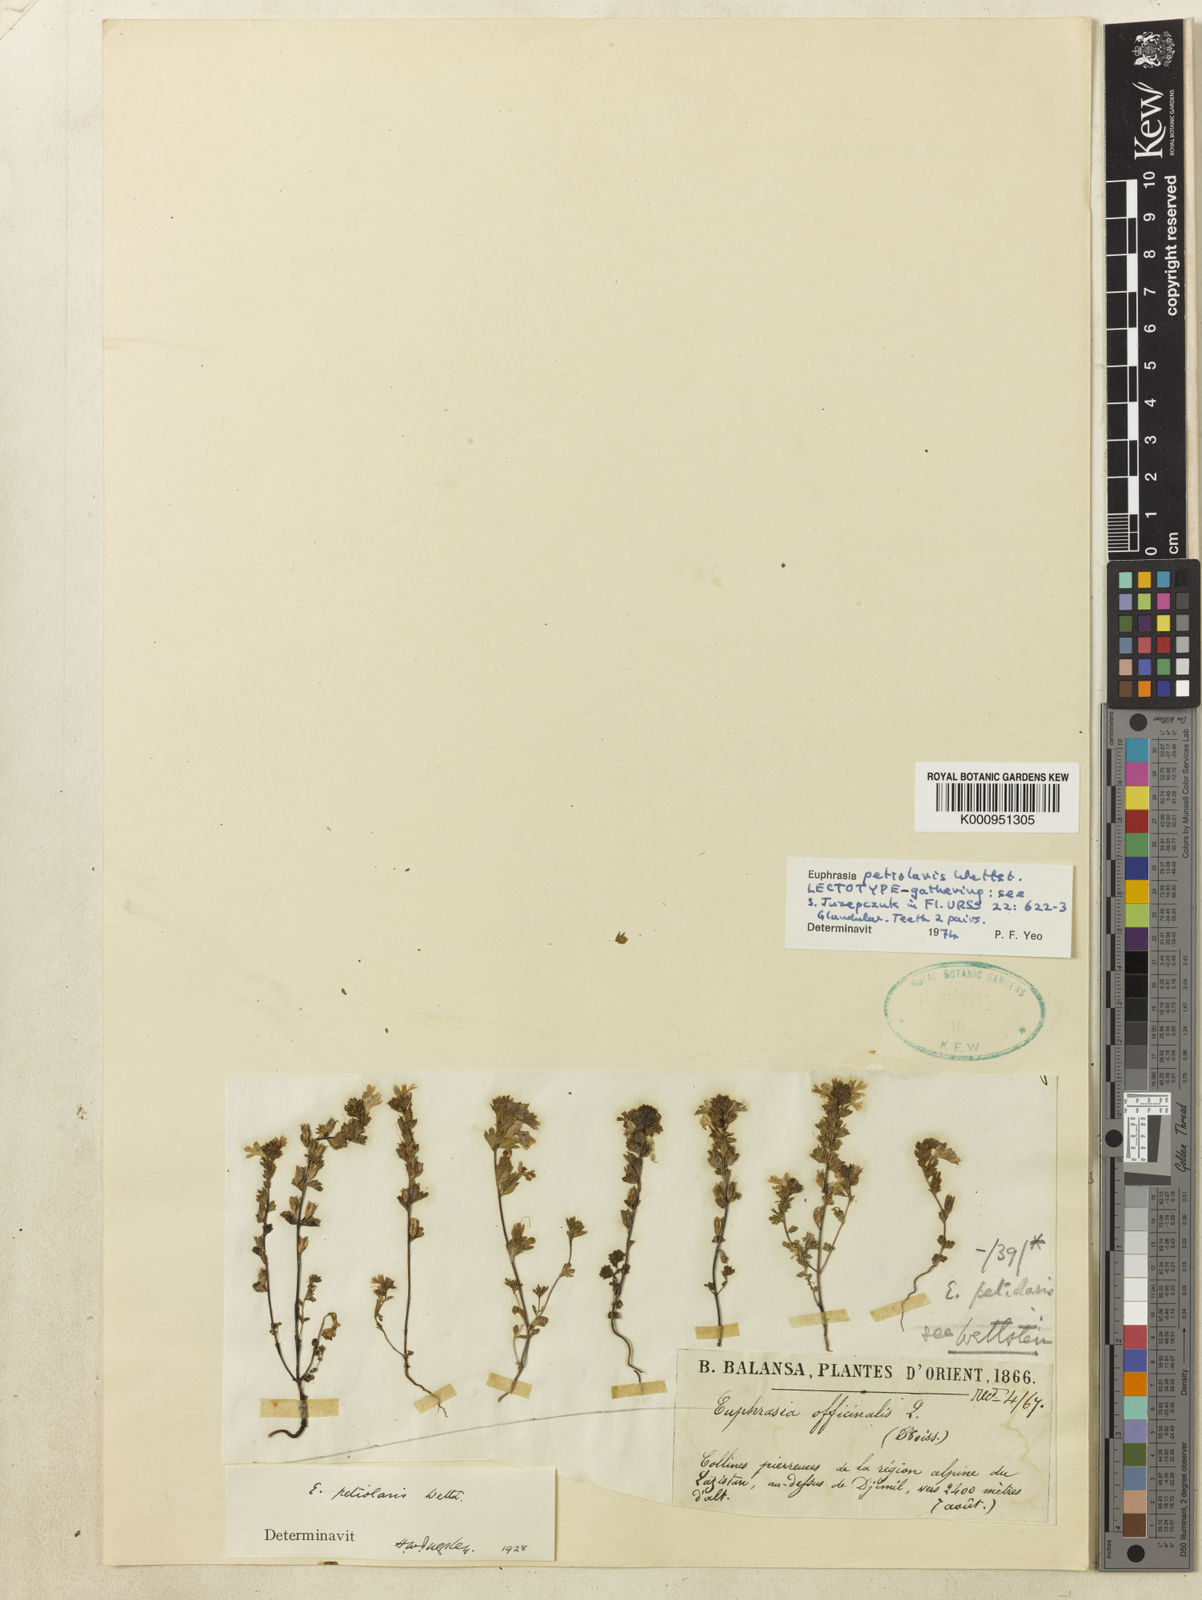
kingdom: Plantae
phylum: Tracheophyta
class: Magnoliopsida
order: Lamiales
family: Orobanchaceae
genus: Euphrasia
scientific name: Euphrasia petiolaris
